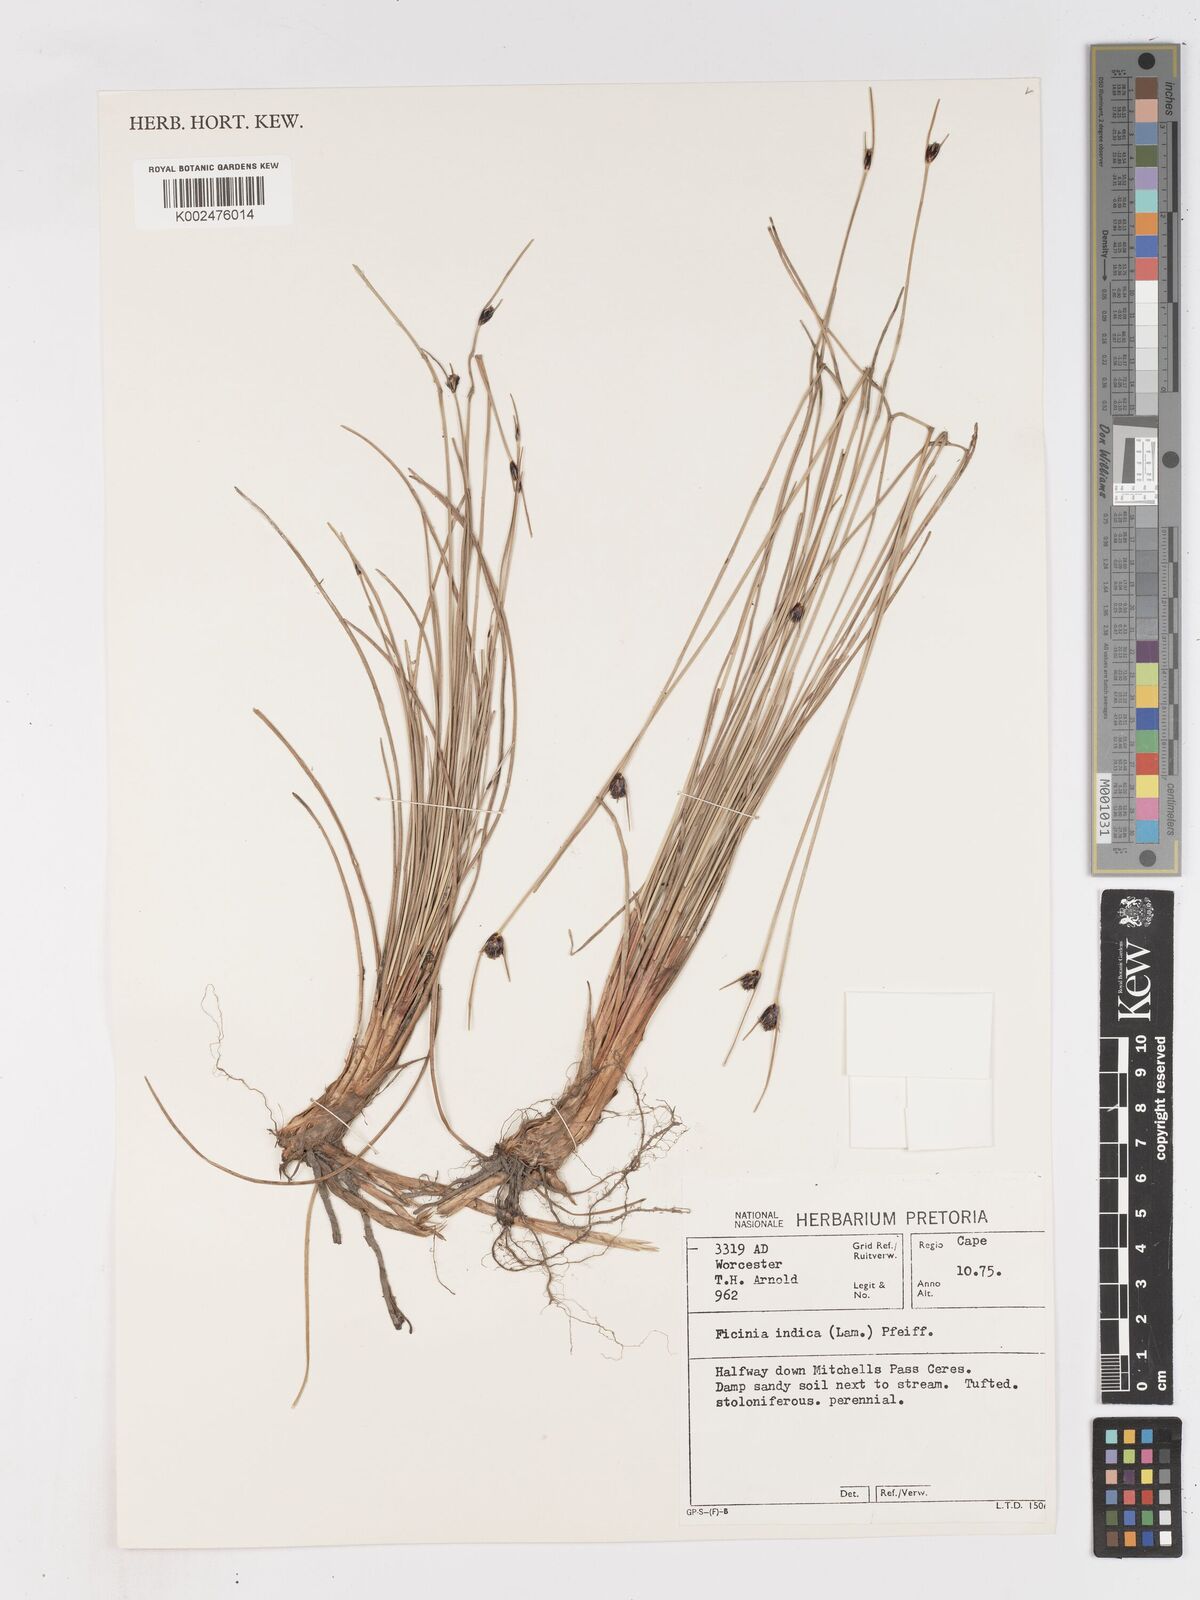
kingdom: Plantae
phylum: Tracheophyta
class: Liliopsida
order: Poales
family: Cyperaceae
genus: Ficinia
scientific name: Ficinia indica
